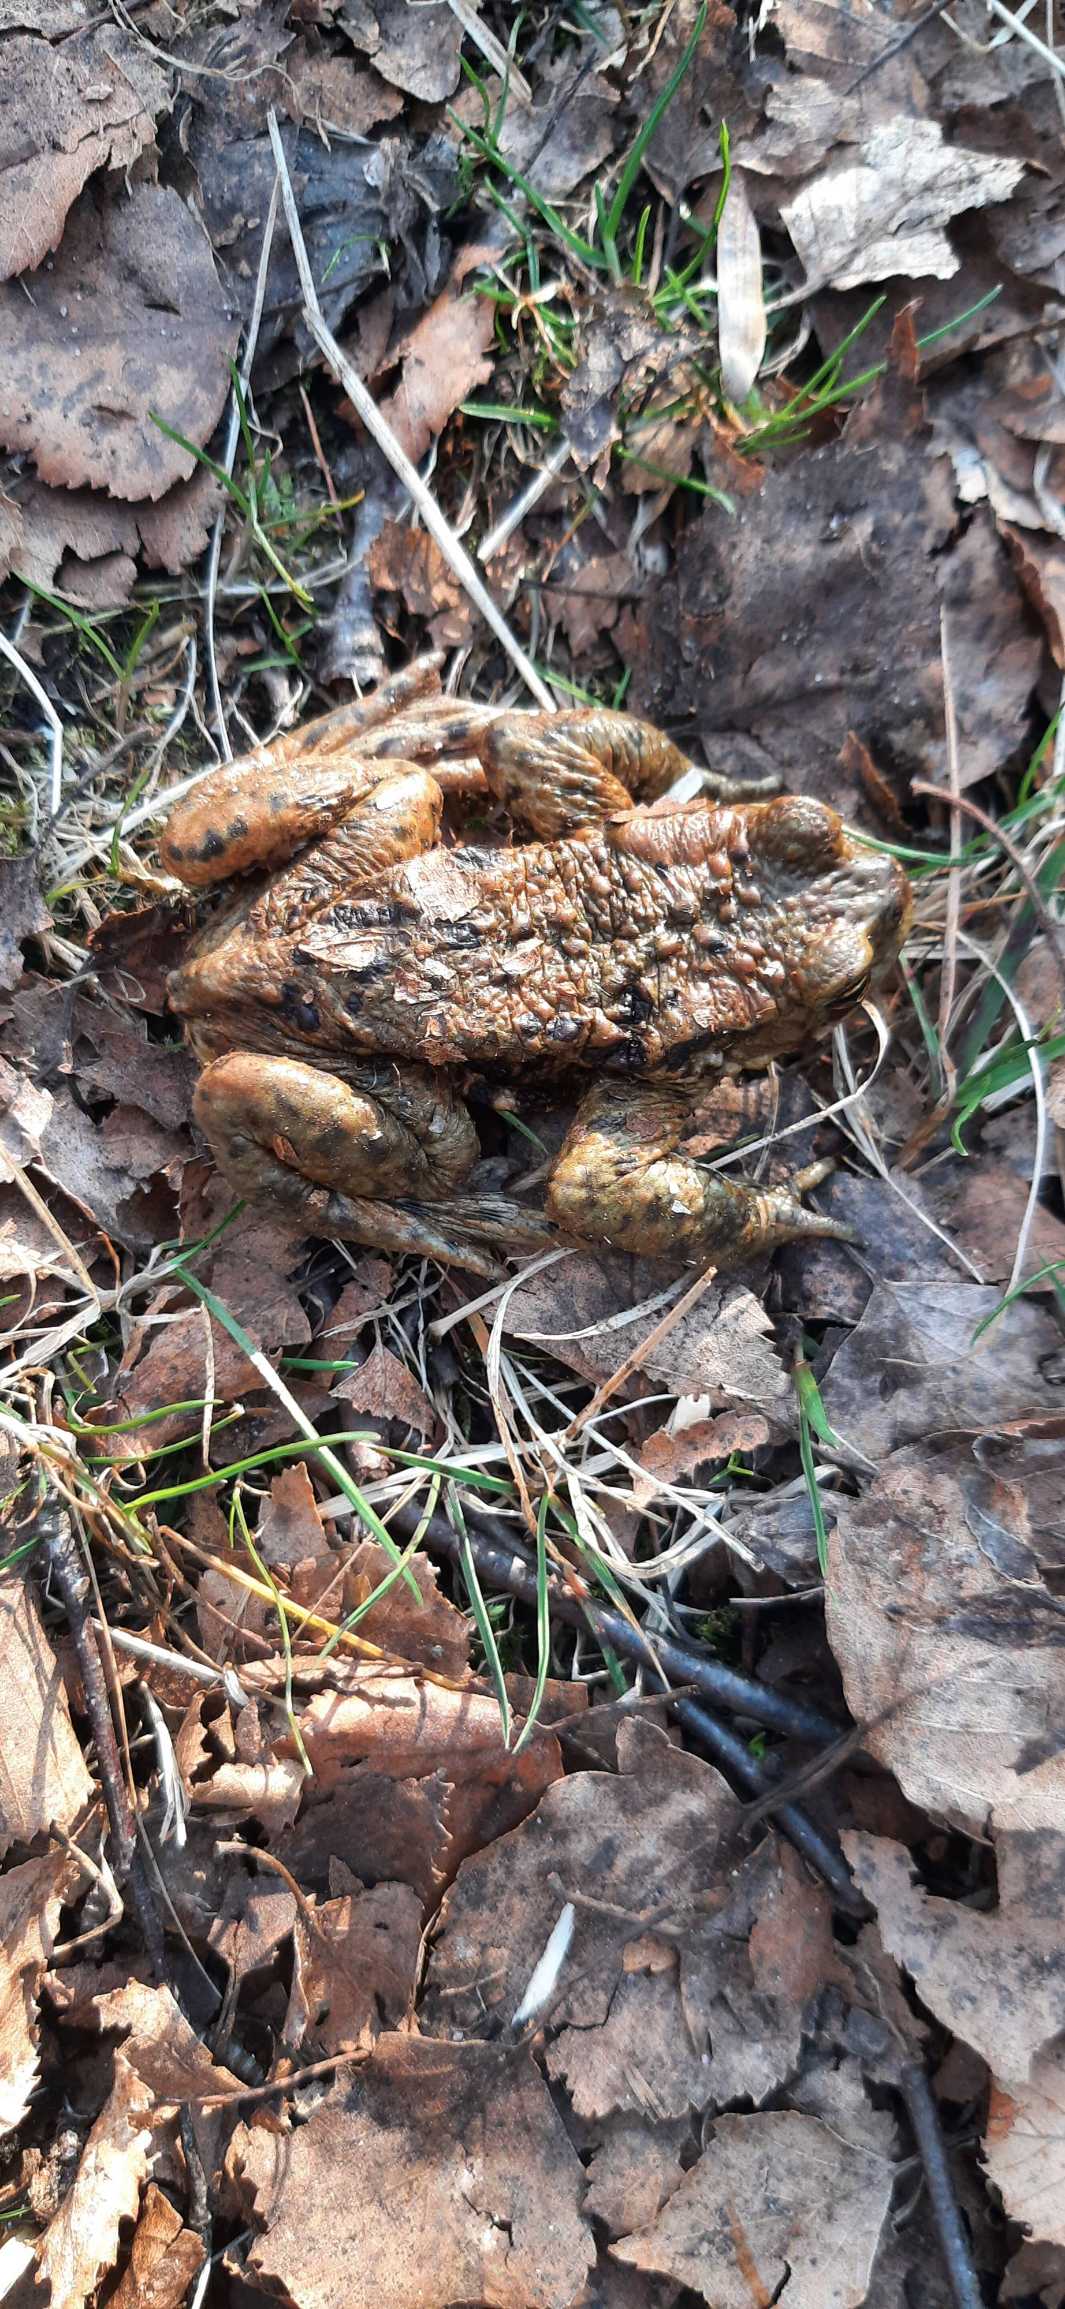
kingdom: Animalia
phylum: Chordata
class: Amphibia
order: Anura
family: Bufonidae
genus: Bufo
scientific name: Bufo bufo
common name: Skrubtudse
